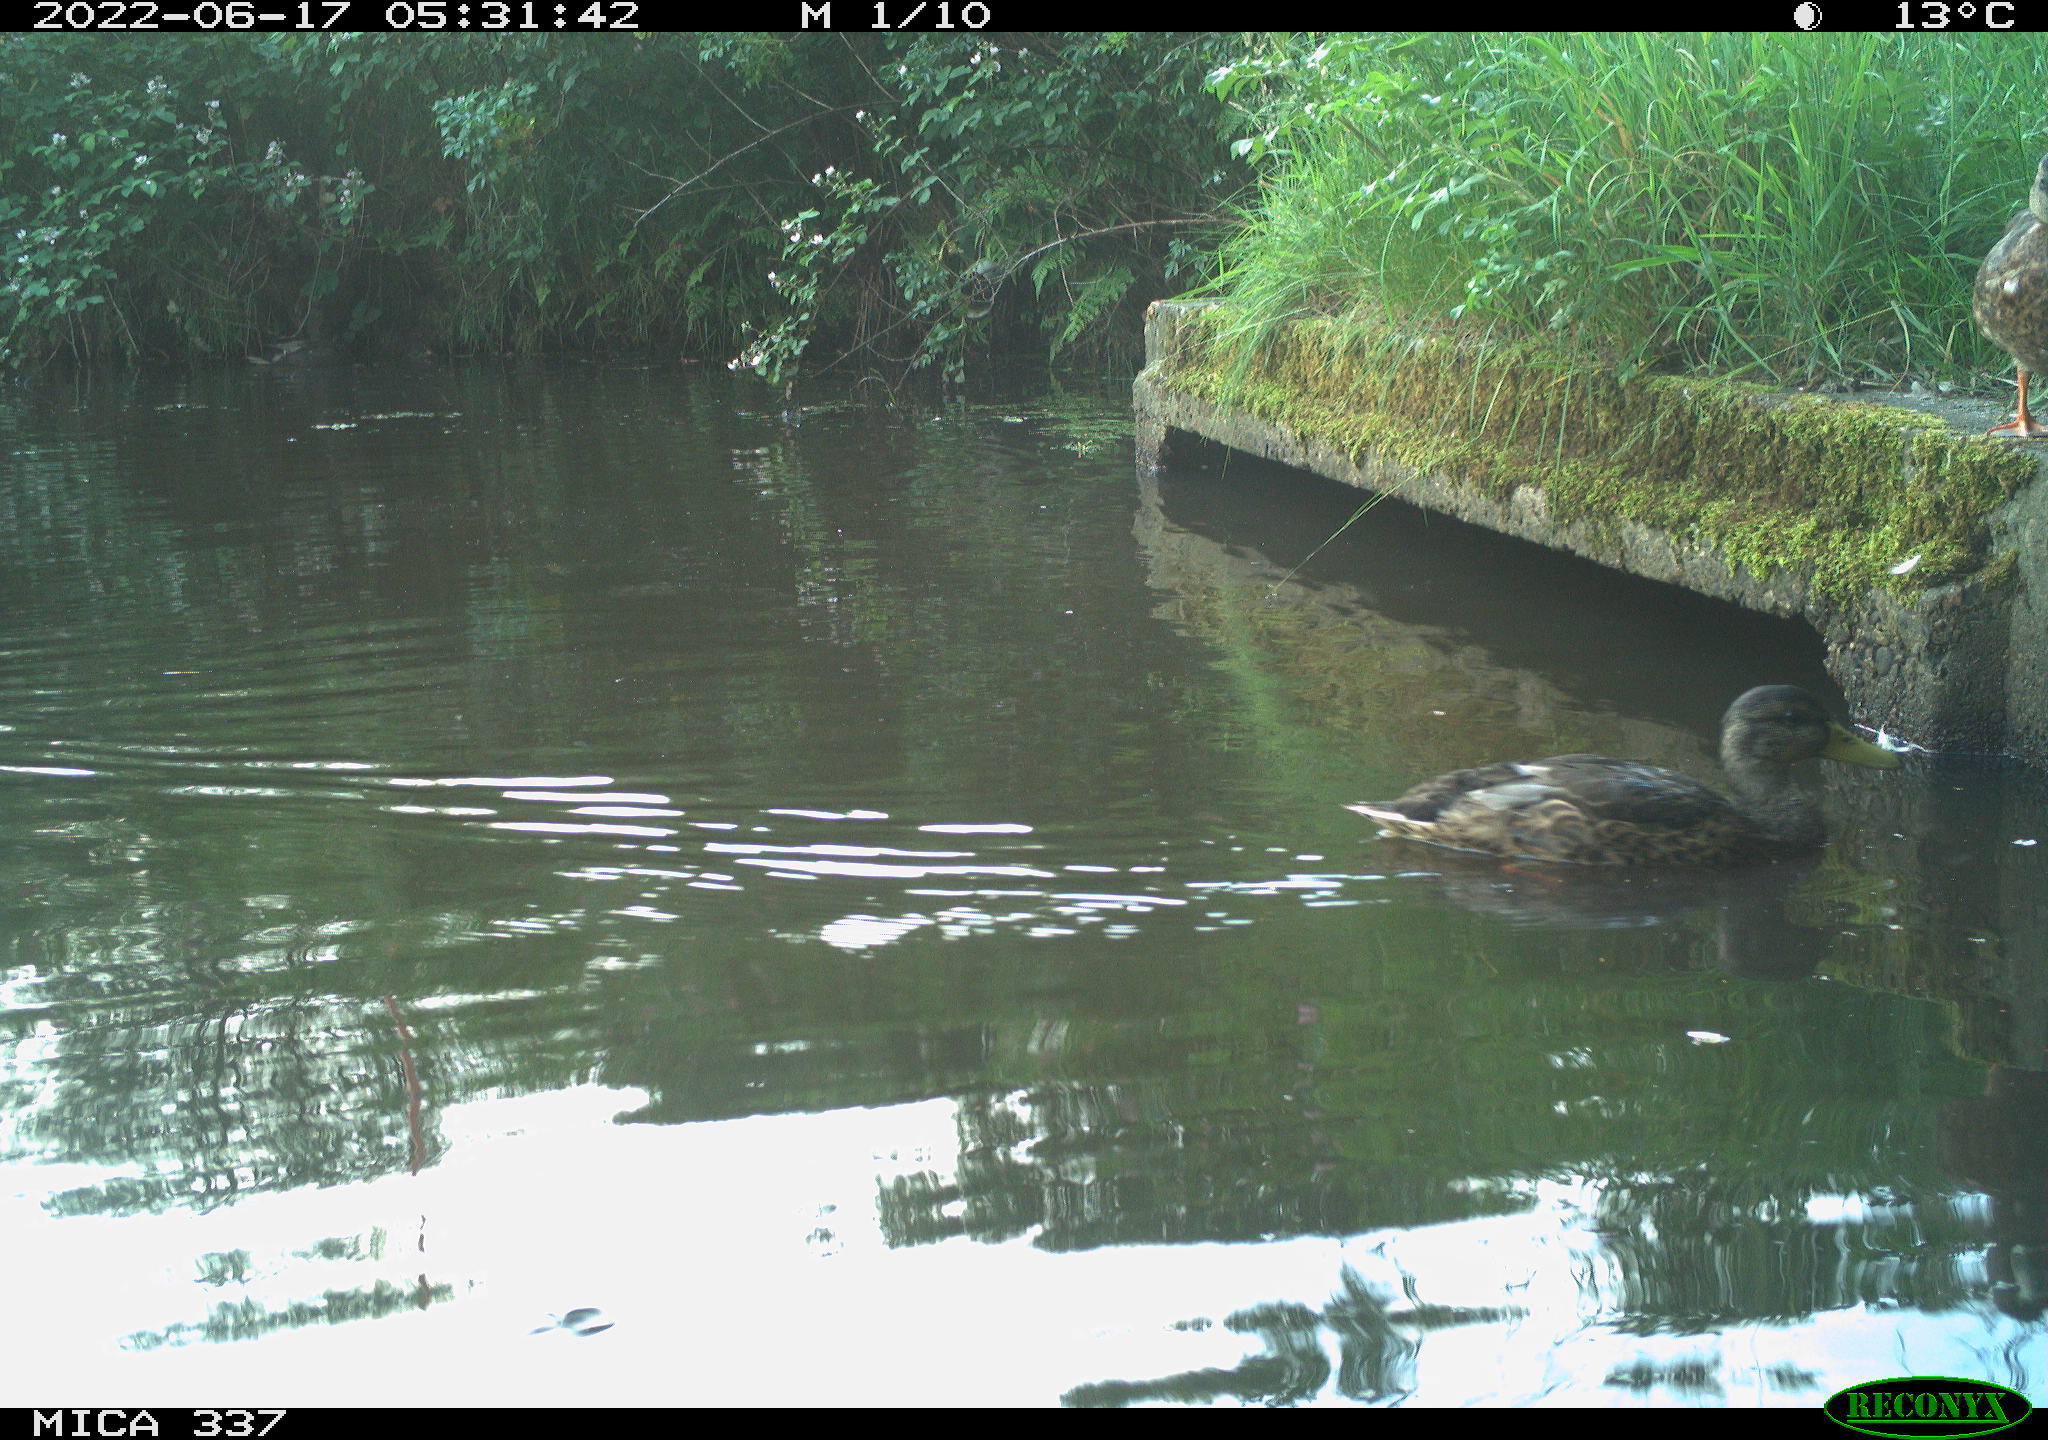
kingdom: Animalia
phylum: Chordata
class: Aves
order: Anseriformes
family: Anatidae
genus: Anas
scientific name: Anas platyrhynchos
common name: Mallard
